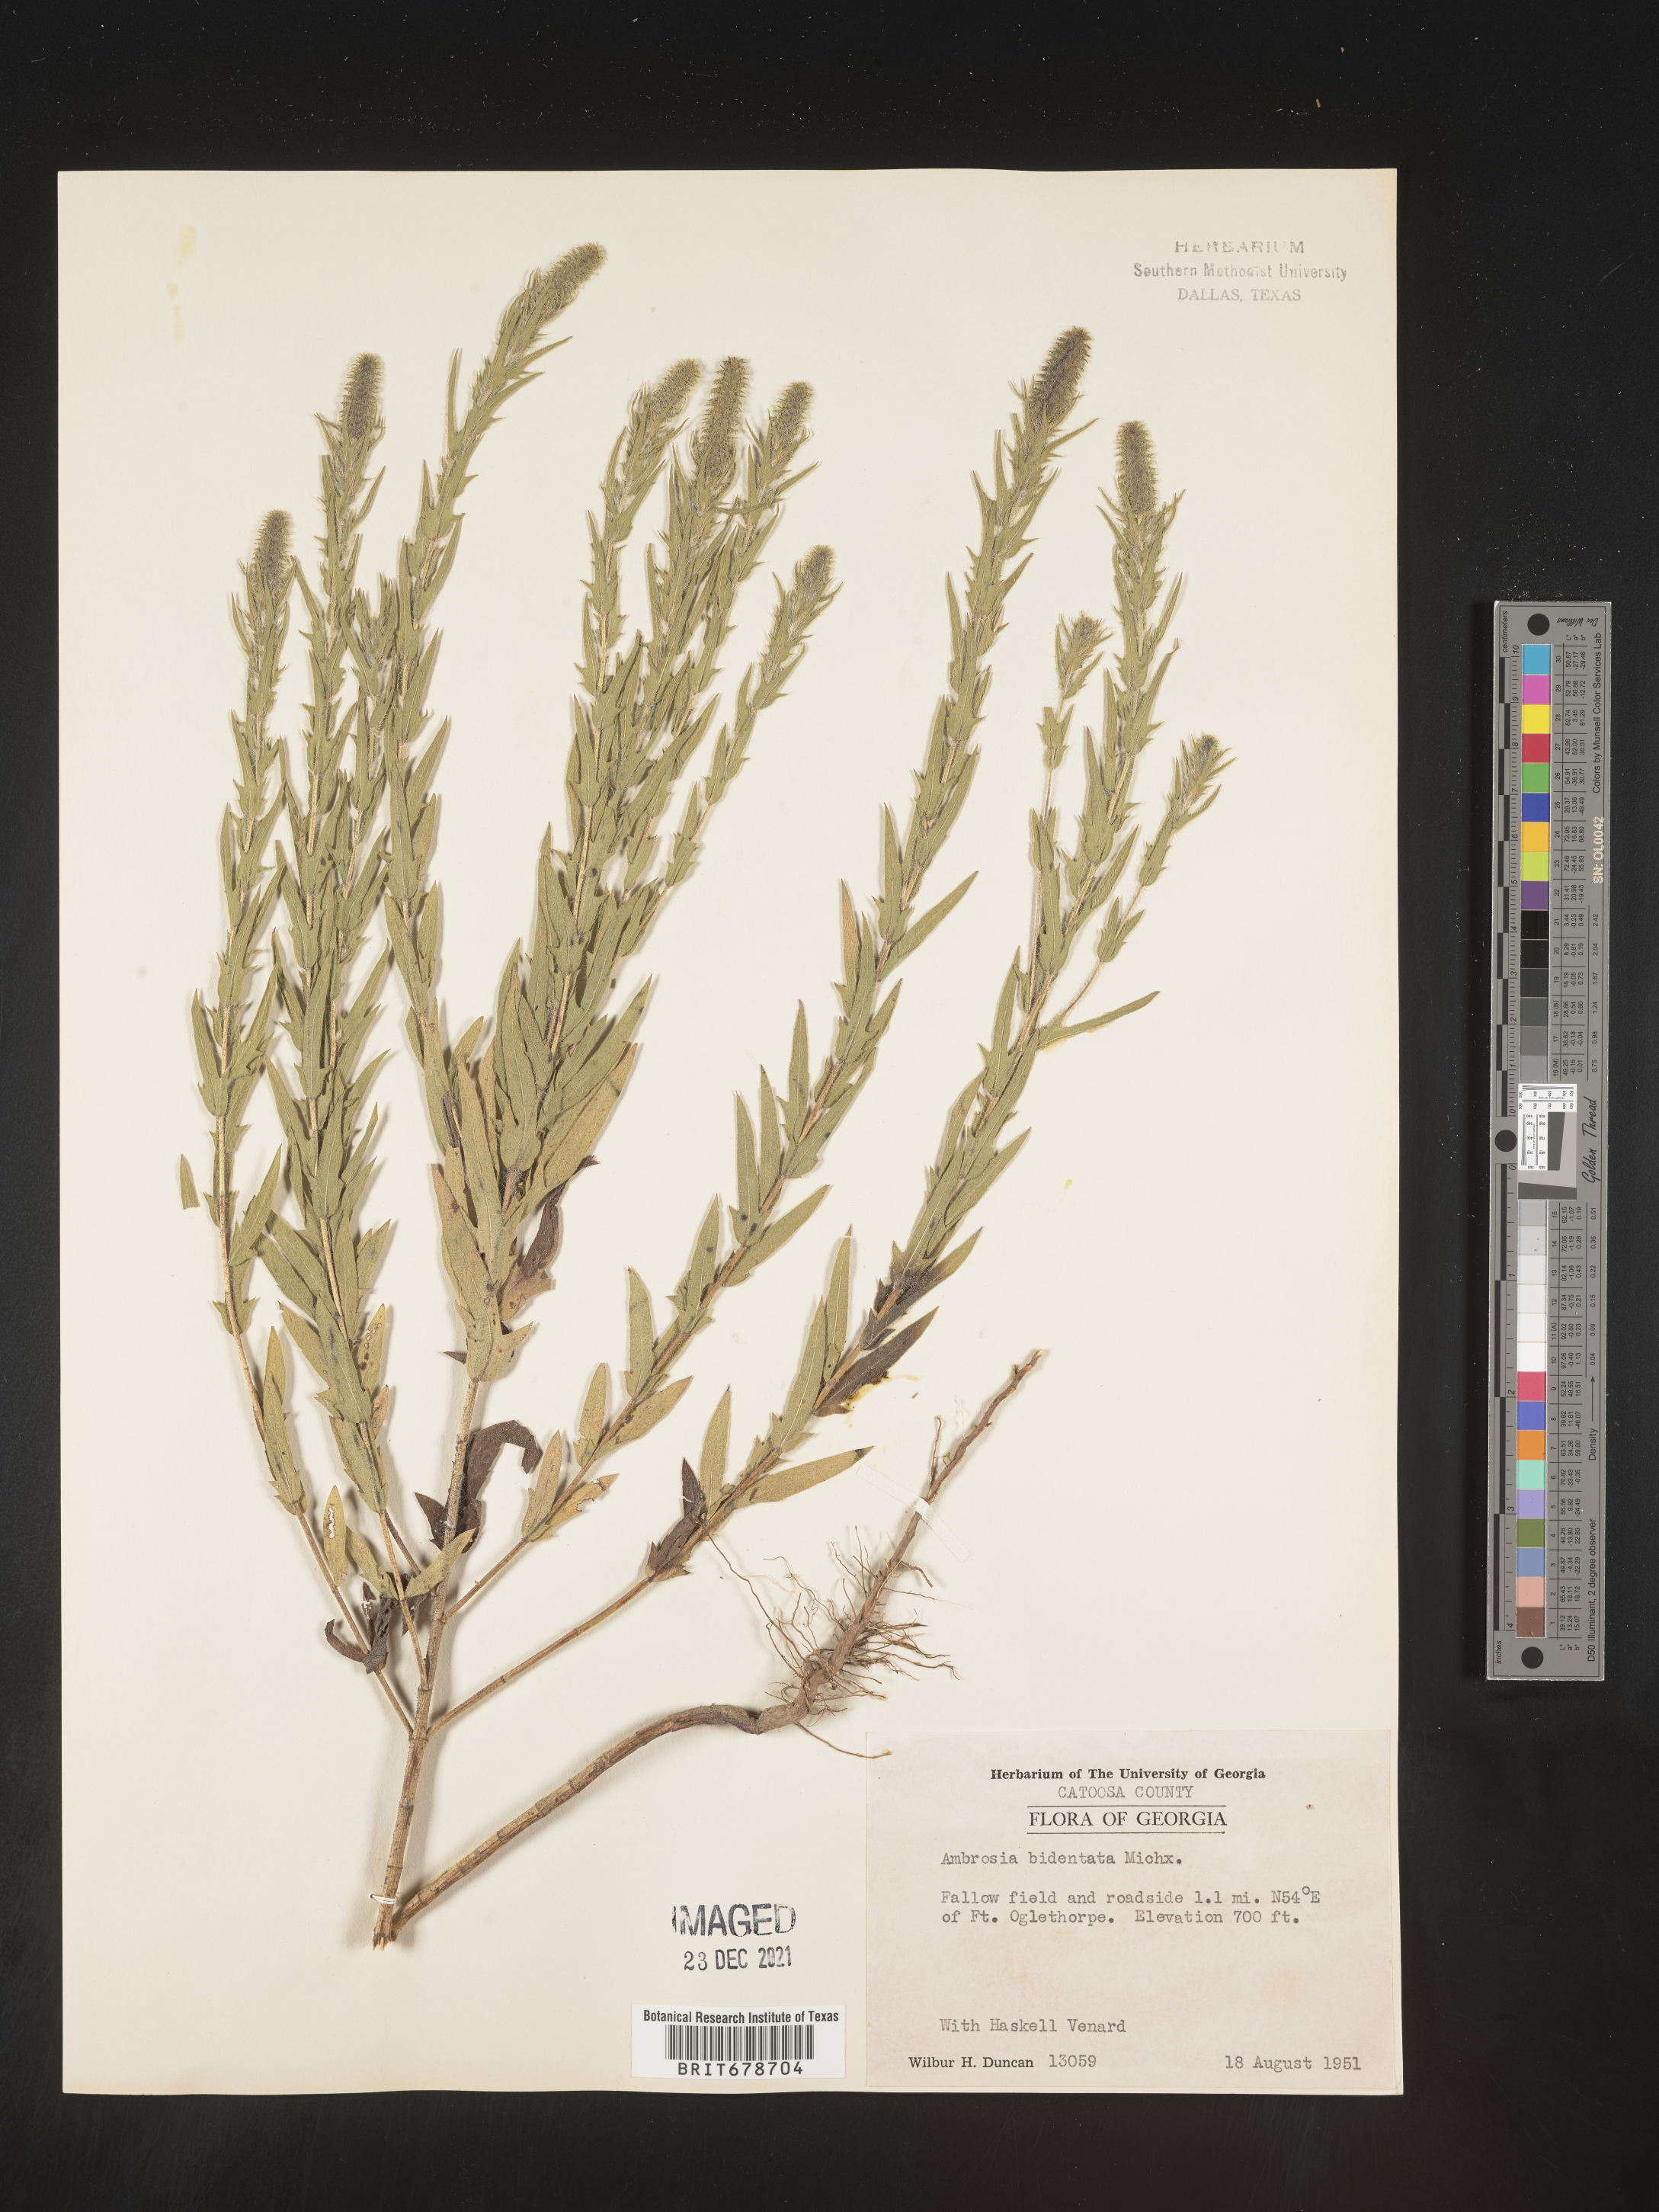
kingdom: Plantae
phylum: Tracheophyta
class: Magnoliopsida
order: Asterales
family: Asteraceae
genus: Ambrosia
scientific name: Ambrosia bidentata
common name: Southern ragweed
